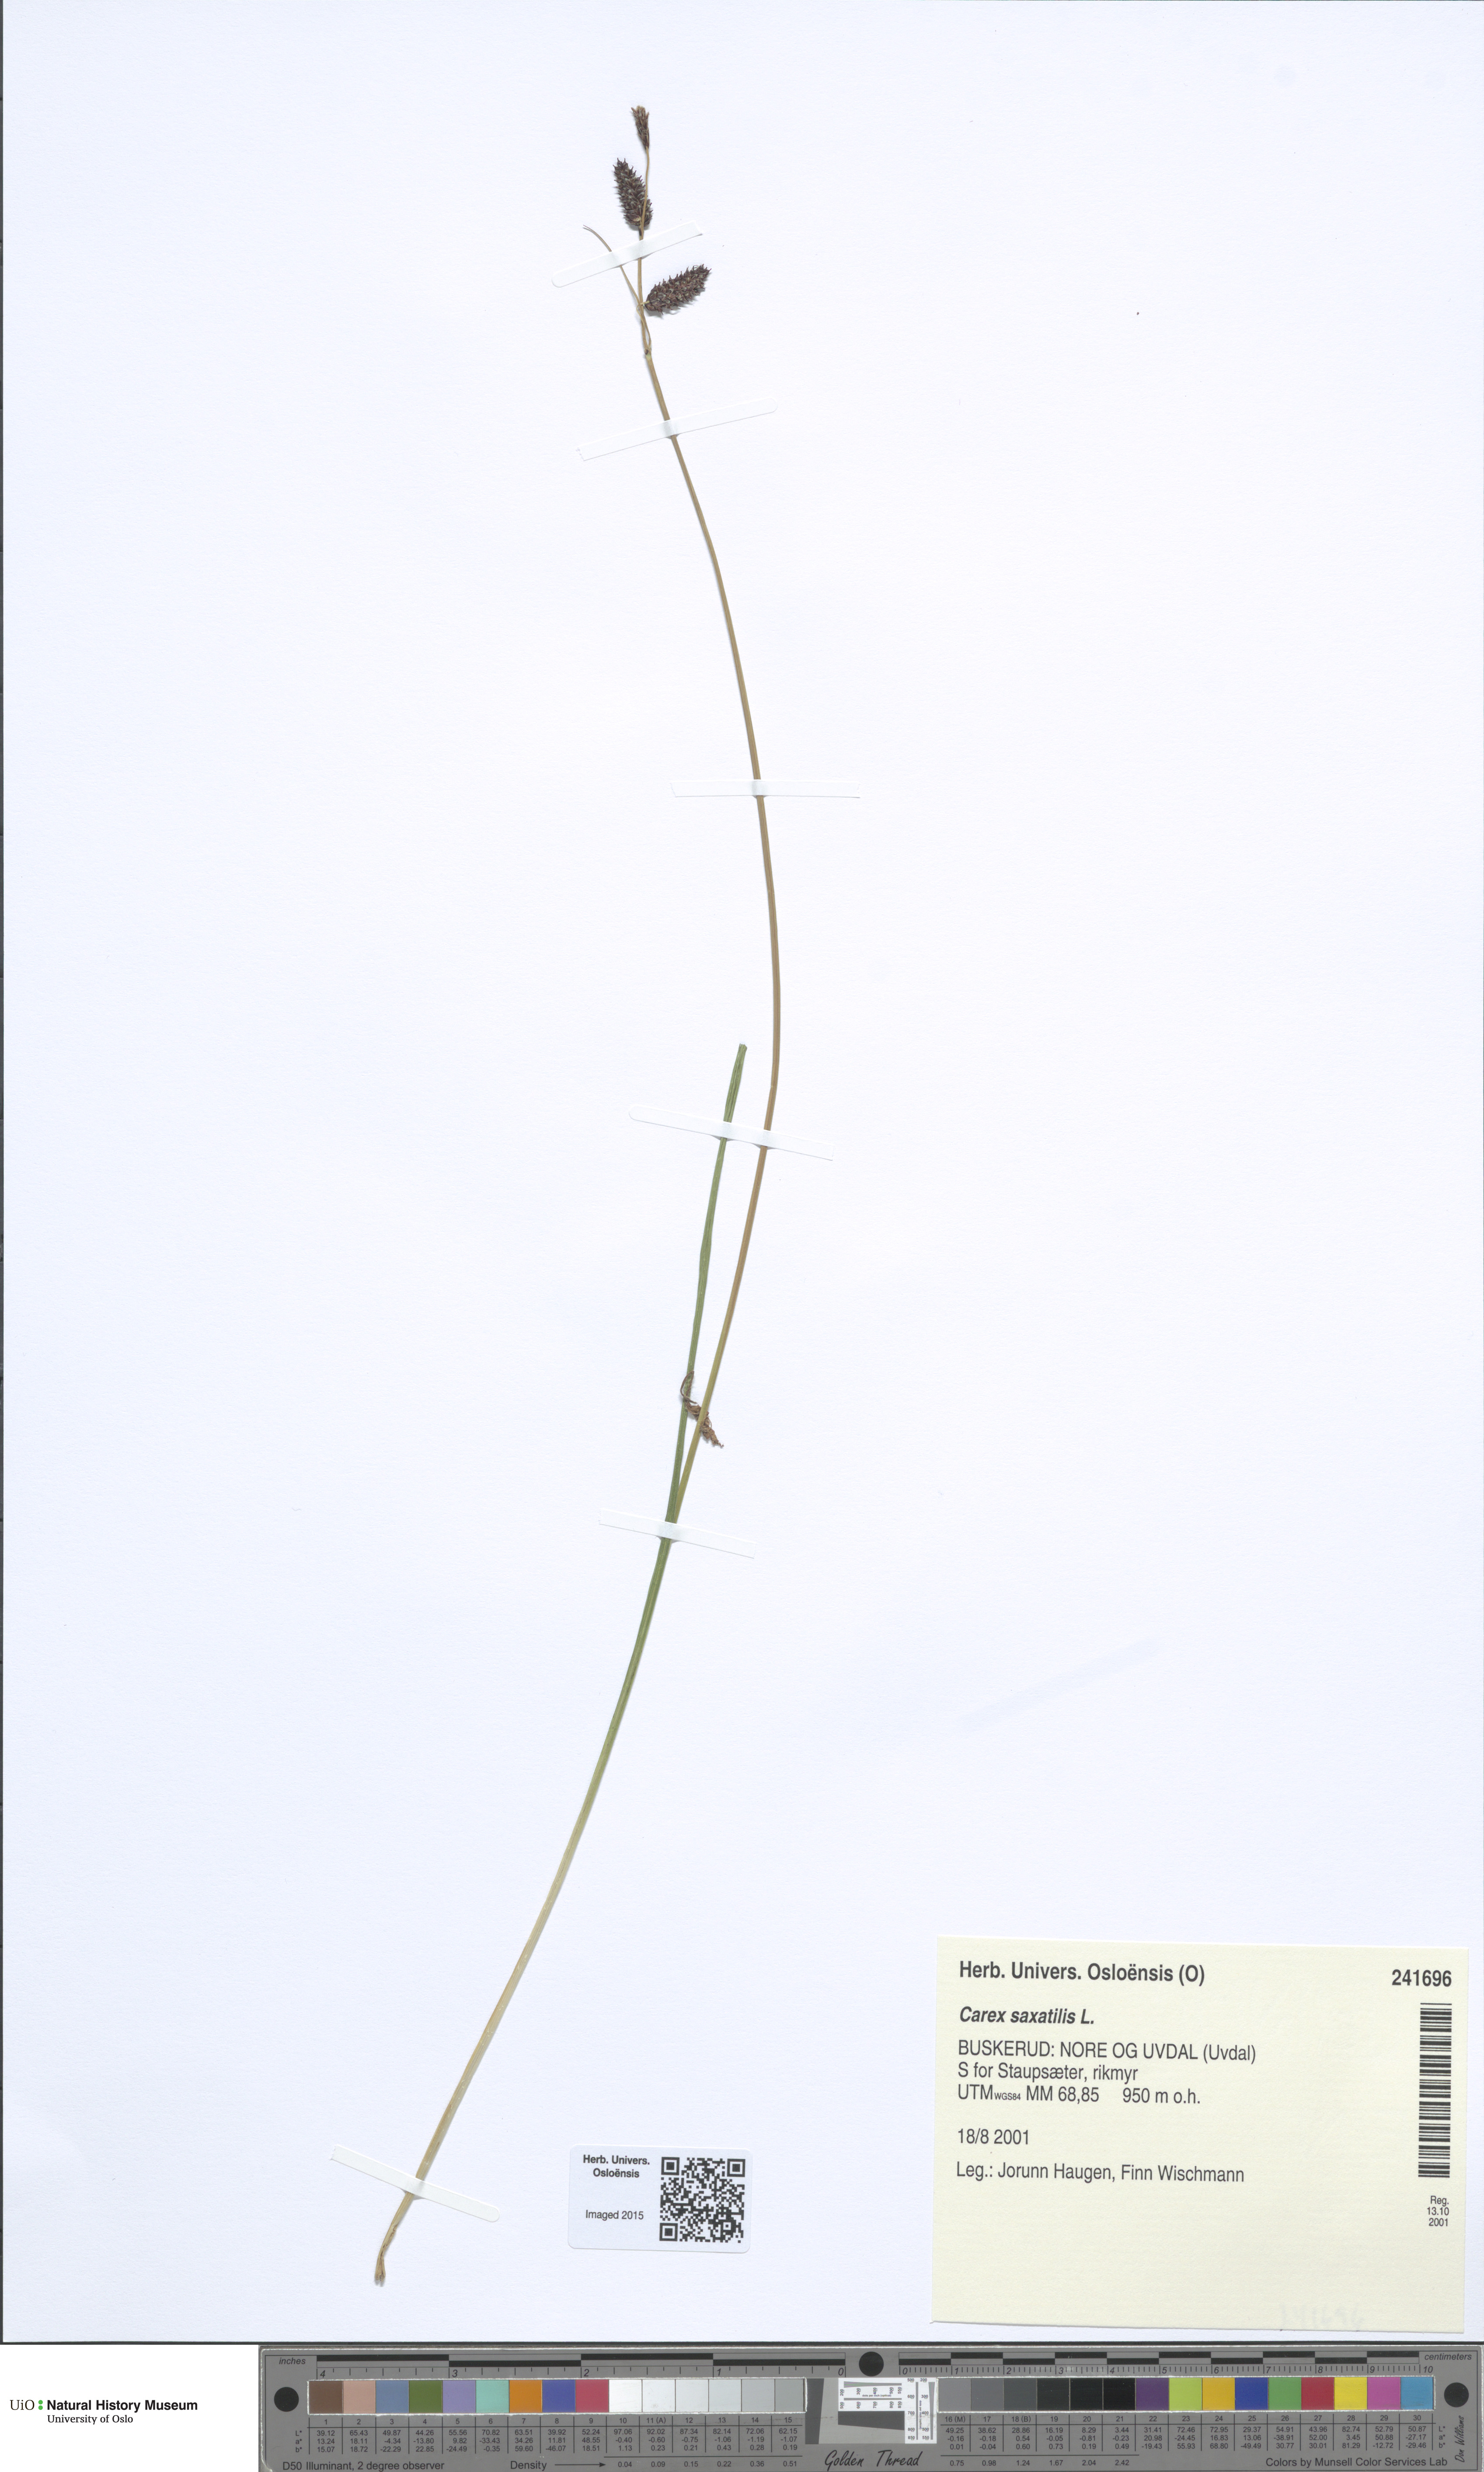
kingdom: Plantae
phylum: Tracheophyta
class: Liliopsida
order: Poales
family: Cyperaceae
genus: Carex
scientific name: Carex saxatilis
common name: Russet sedge
